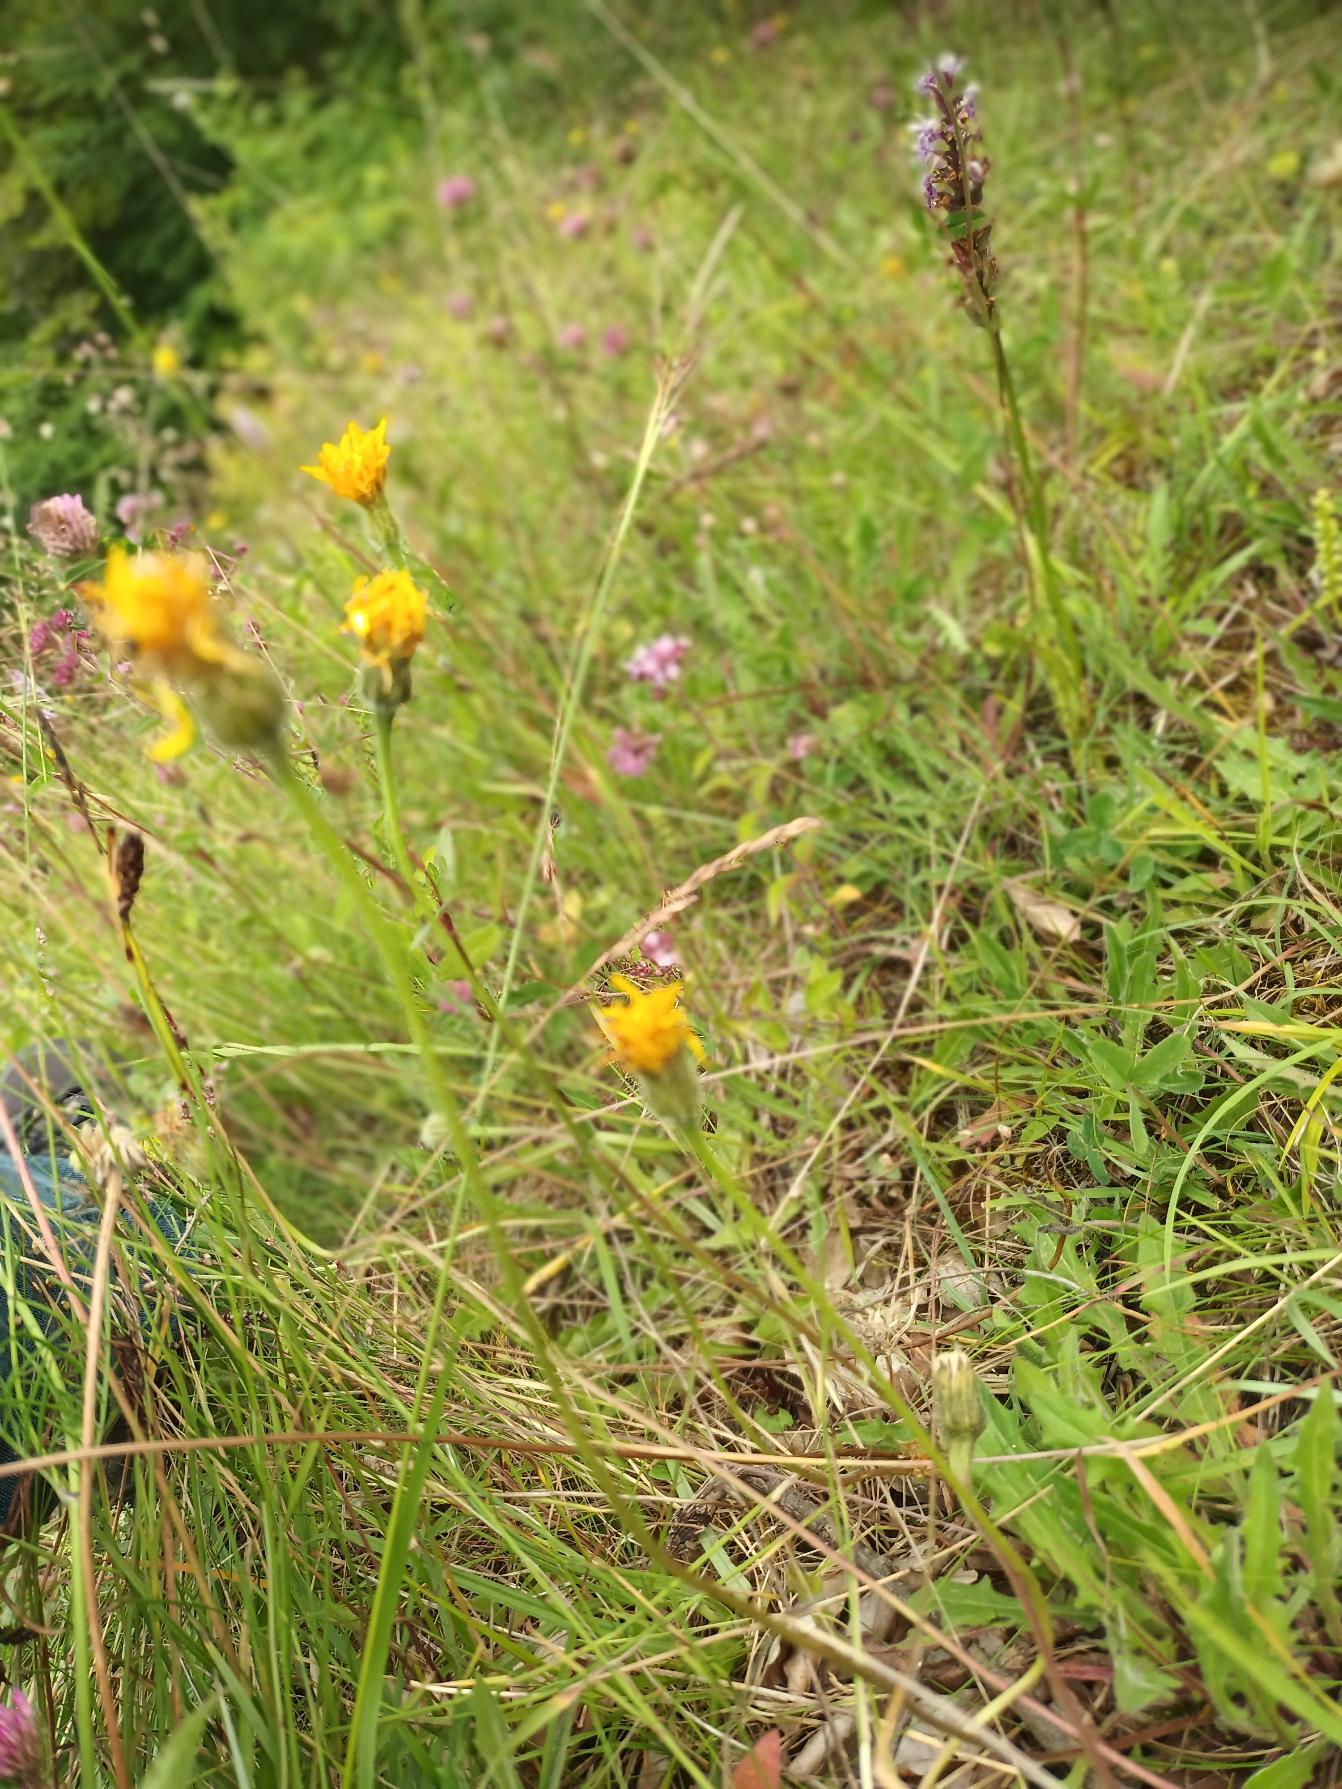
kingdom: Plantae
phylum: Tracheophyta
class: Magnoliopsida
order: Asterales
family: Asteraceae
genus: Leontodon
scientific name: Leontodon hispidus
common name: Stivhåret borst
